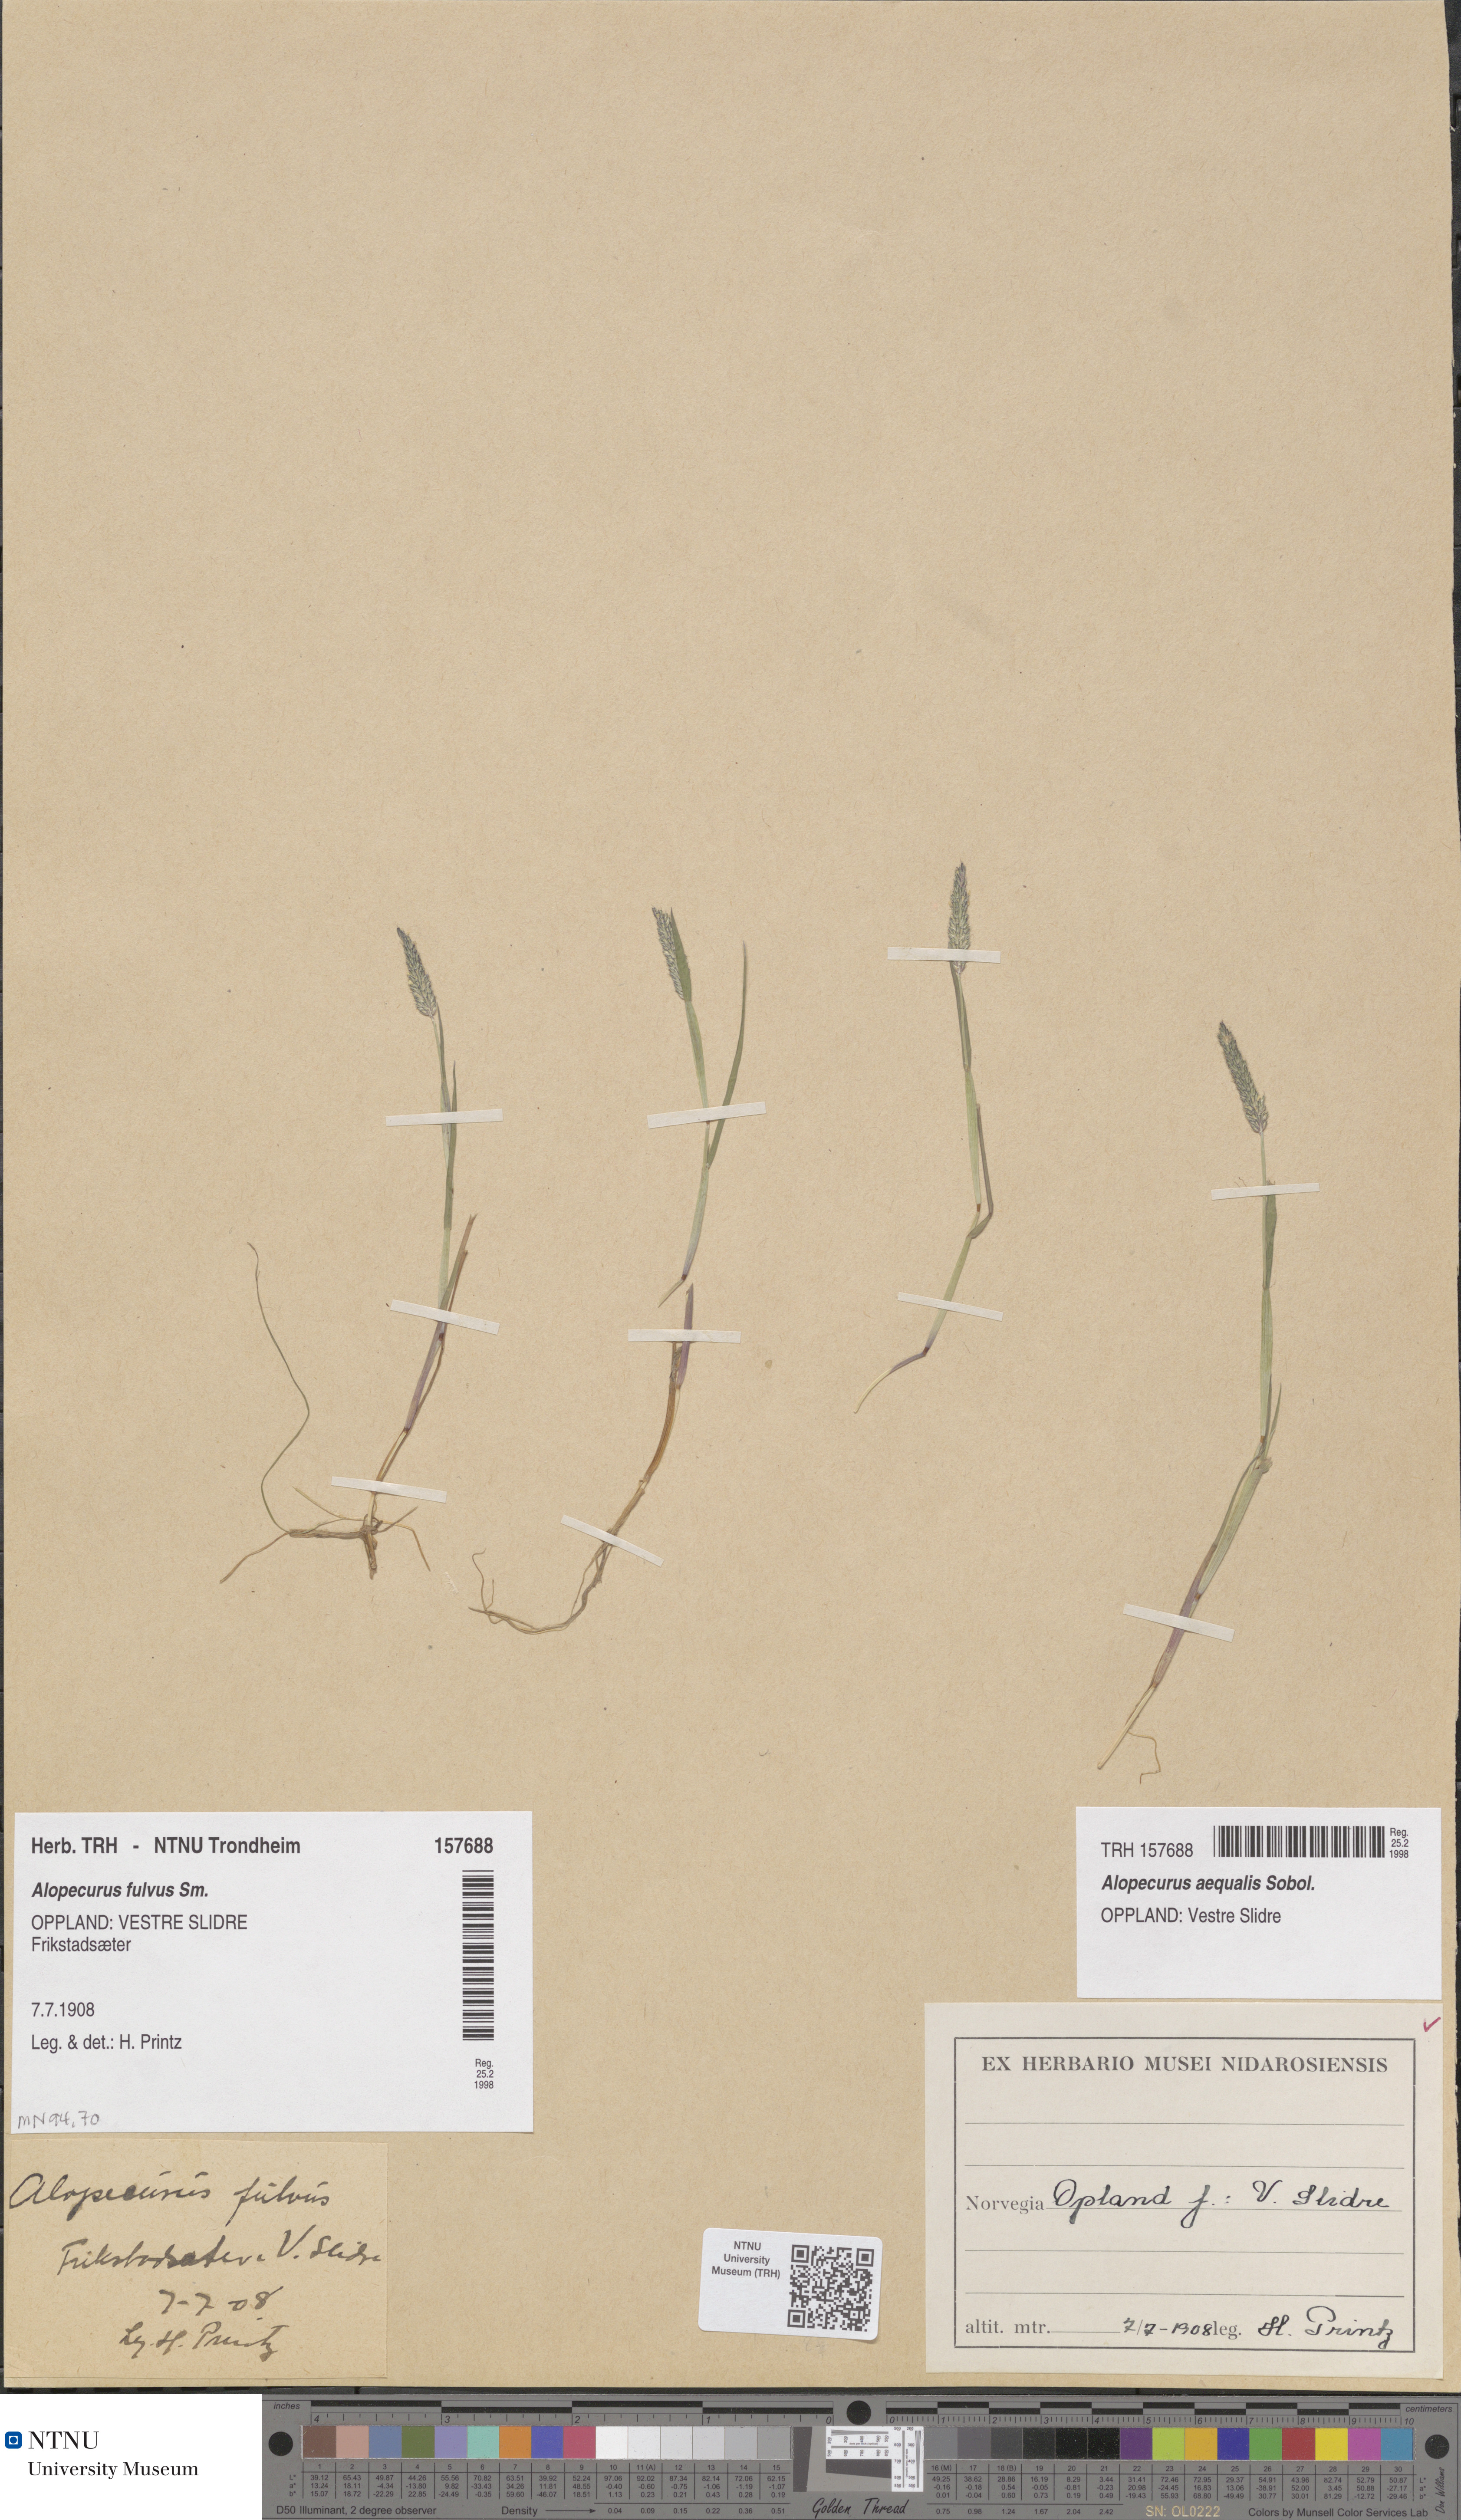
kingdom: Plantae
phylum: Tracheophyta
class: Liliopsida
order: Poales
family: Poaceae
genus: Alopecurus
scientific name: Alopecurus aequalis
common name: Orange foxtail
